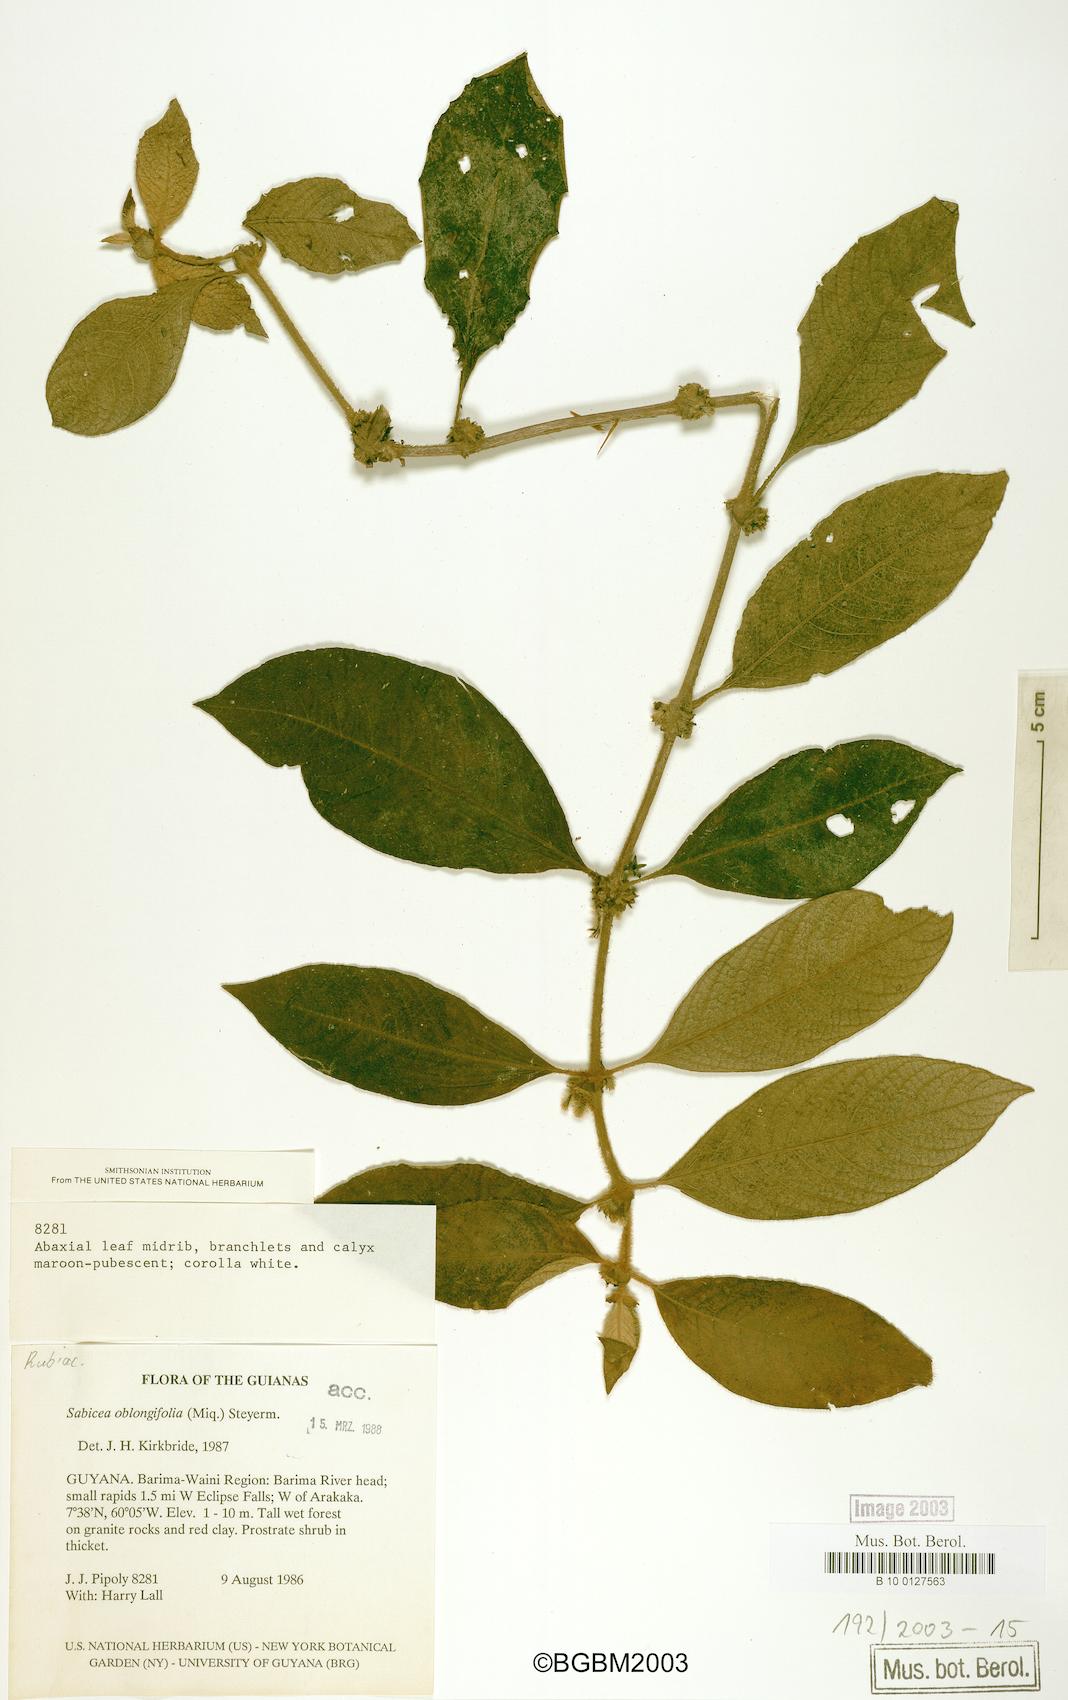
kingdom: Plantae
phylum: Tracheophyta
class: Magnoliopsida
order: Gentianales
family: Rubiaceae
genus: Sabicea
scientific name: Sabicea oblongifolia
